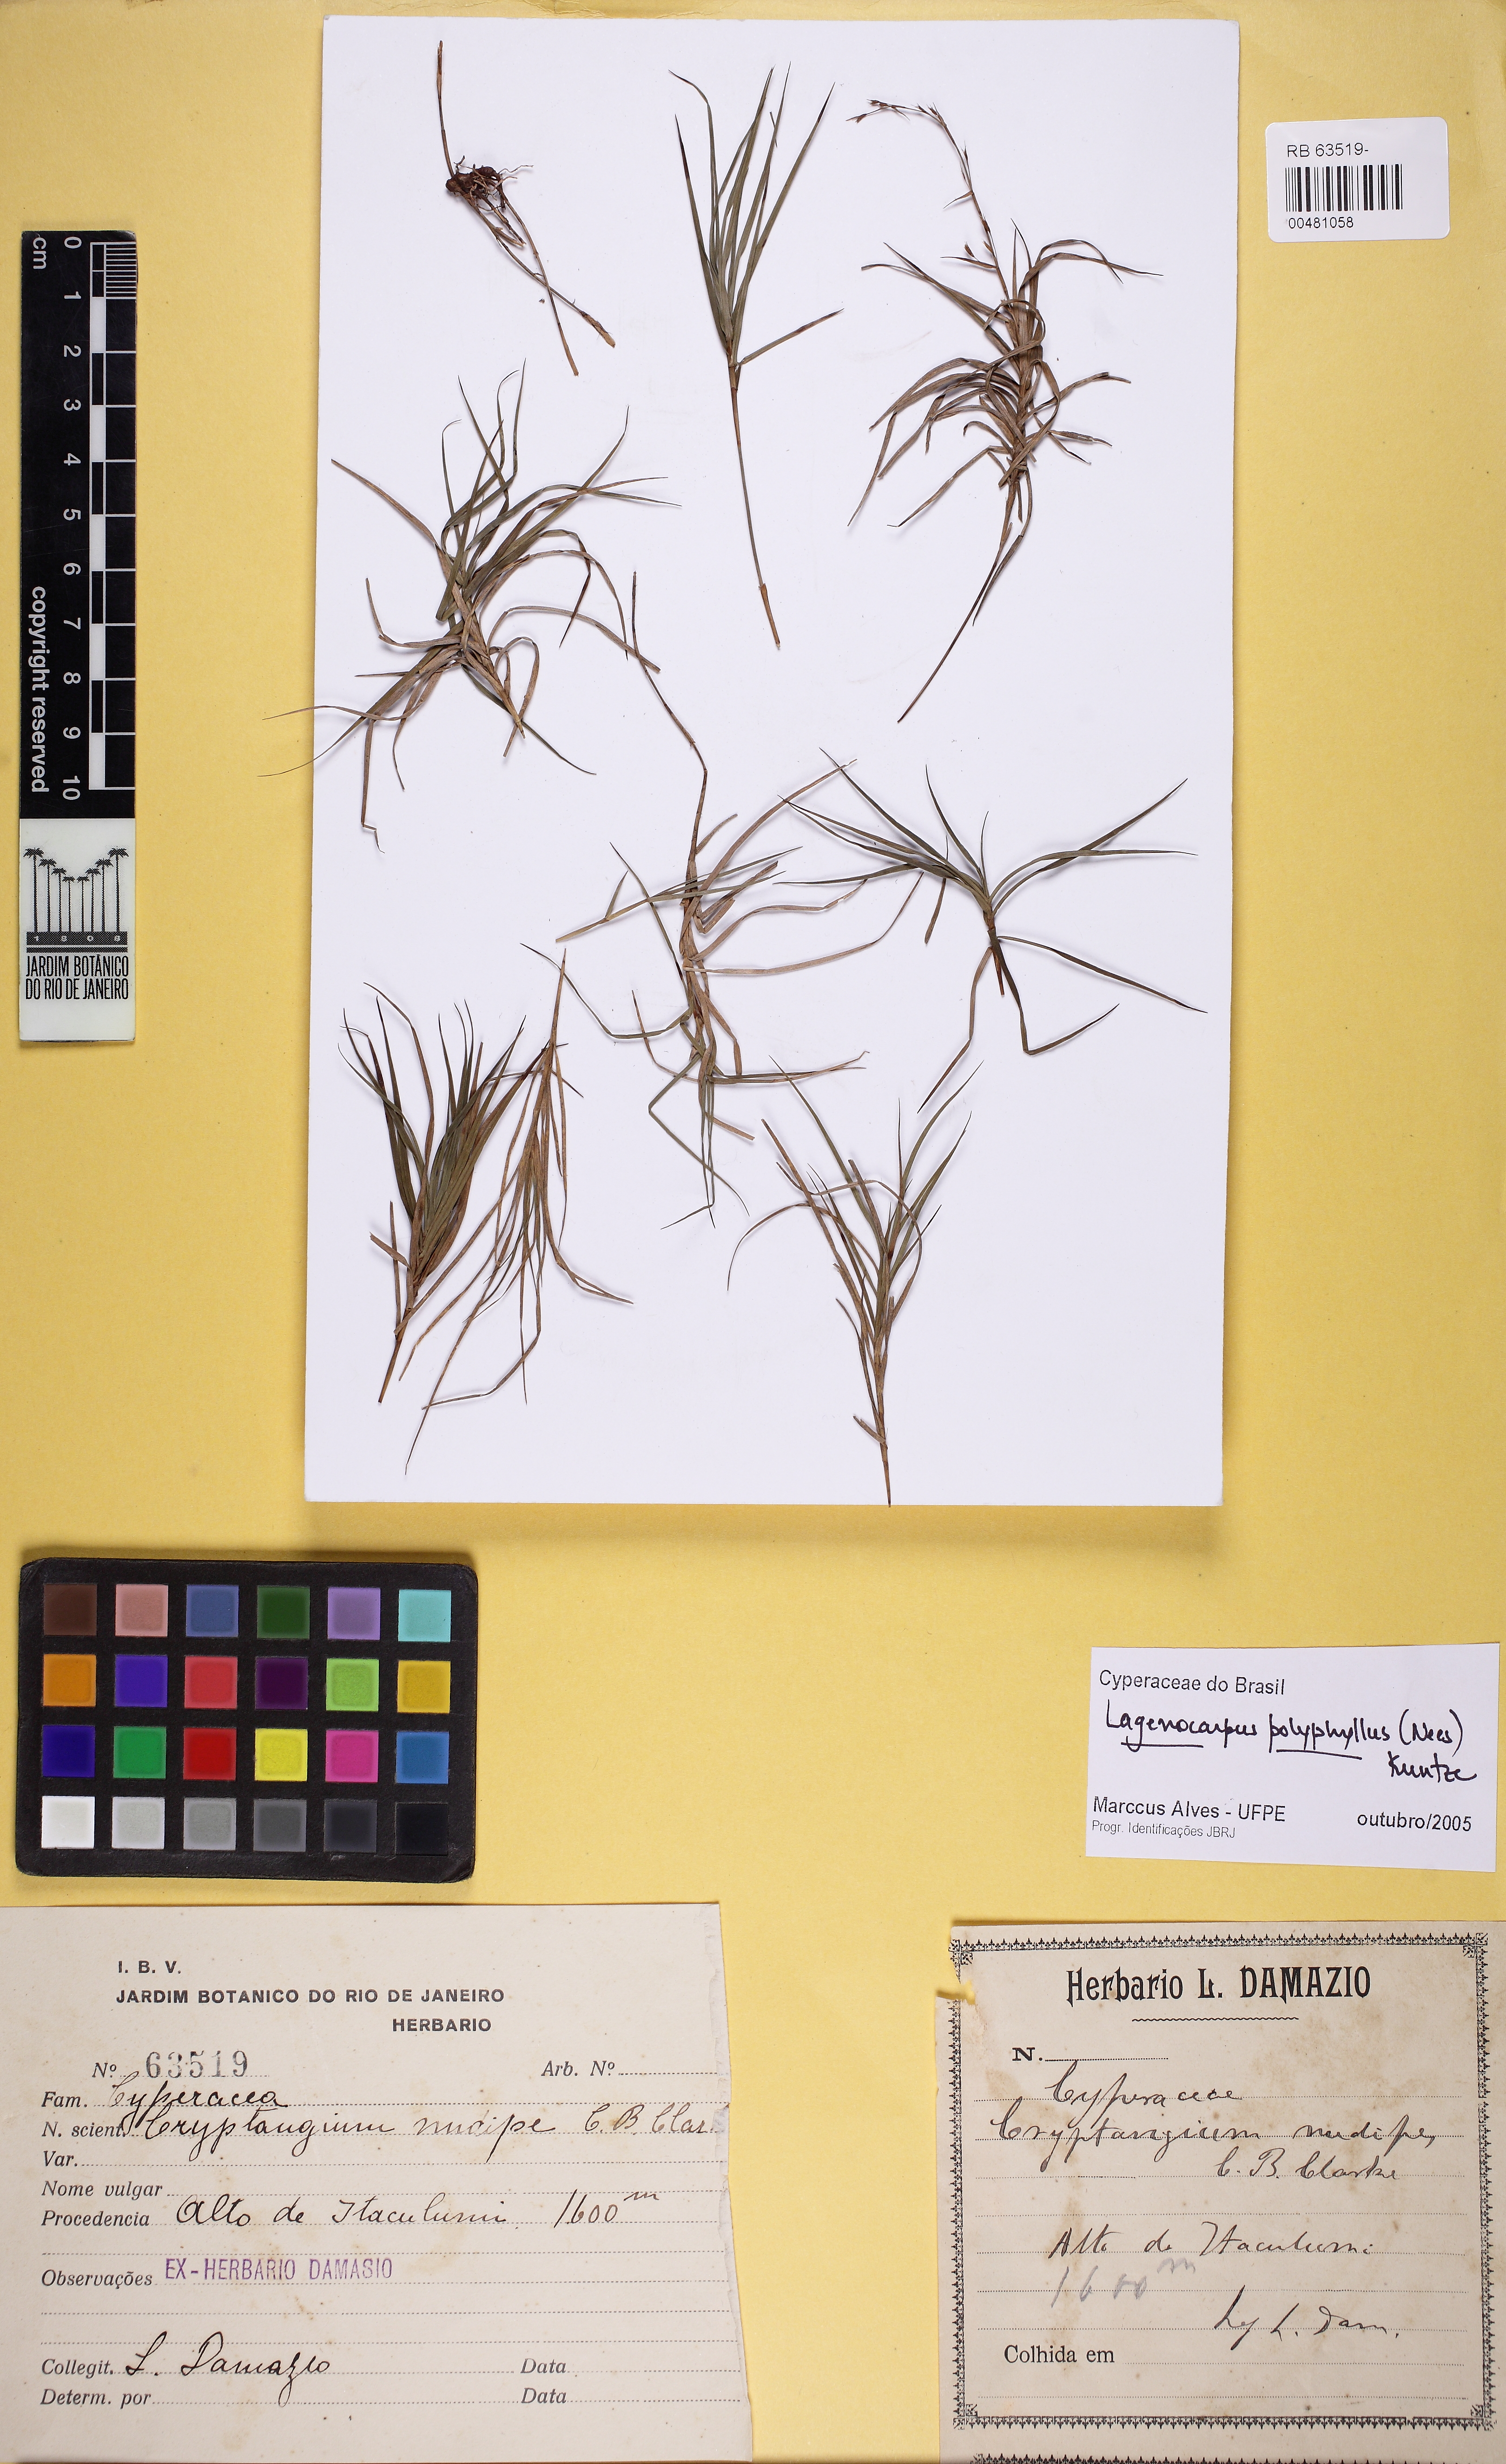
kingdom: Plantae
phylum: Tracheophyta
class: Liliopsida
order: Poales
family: Cyperaceae
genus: Krenakia
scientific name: Krenakia polyphylla
